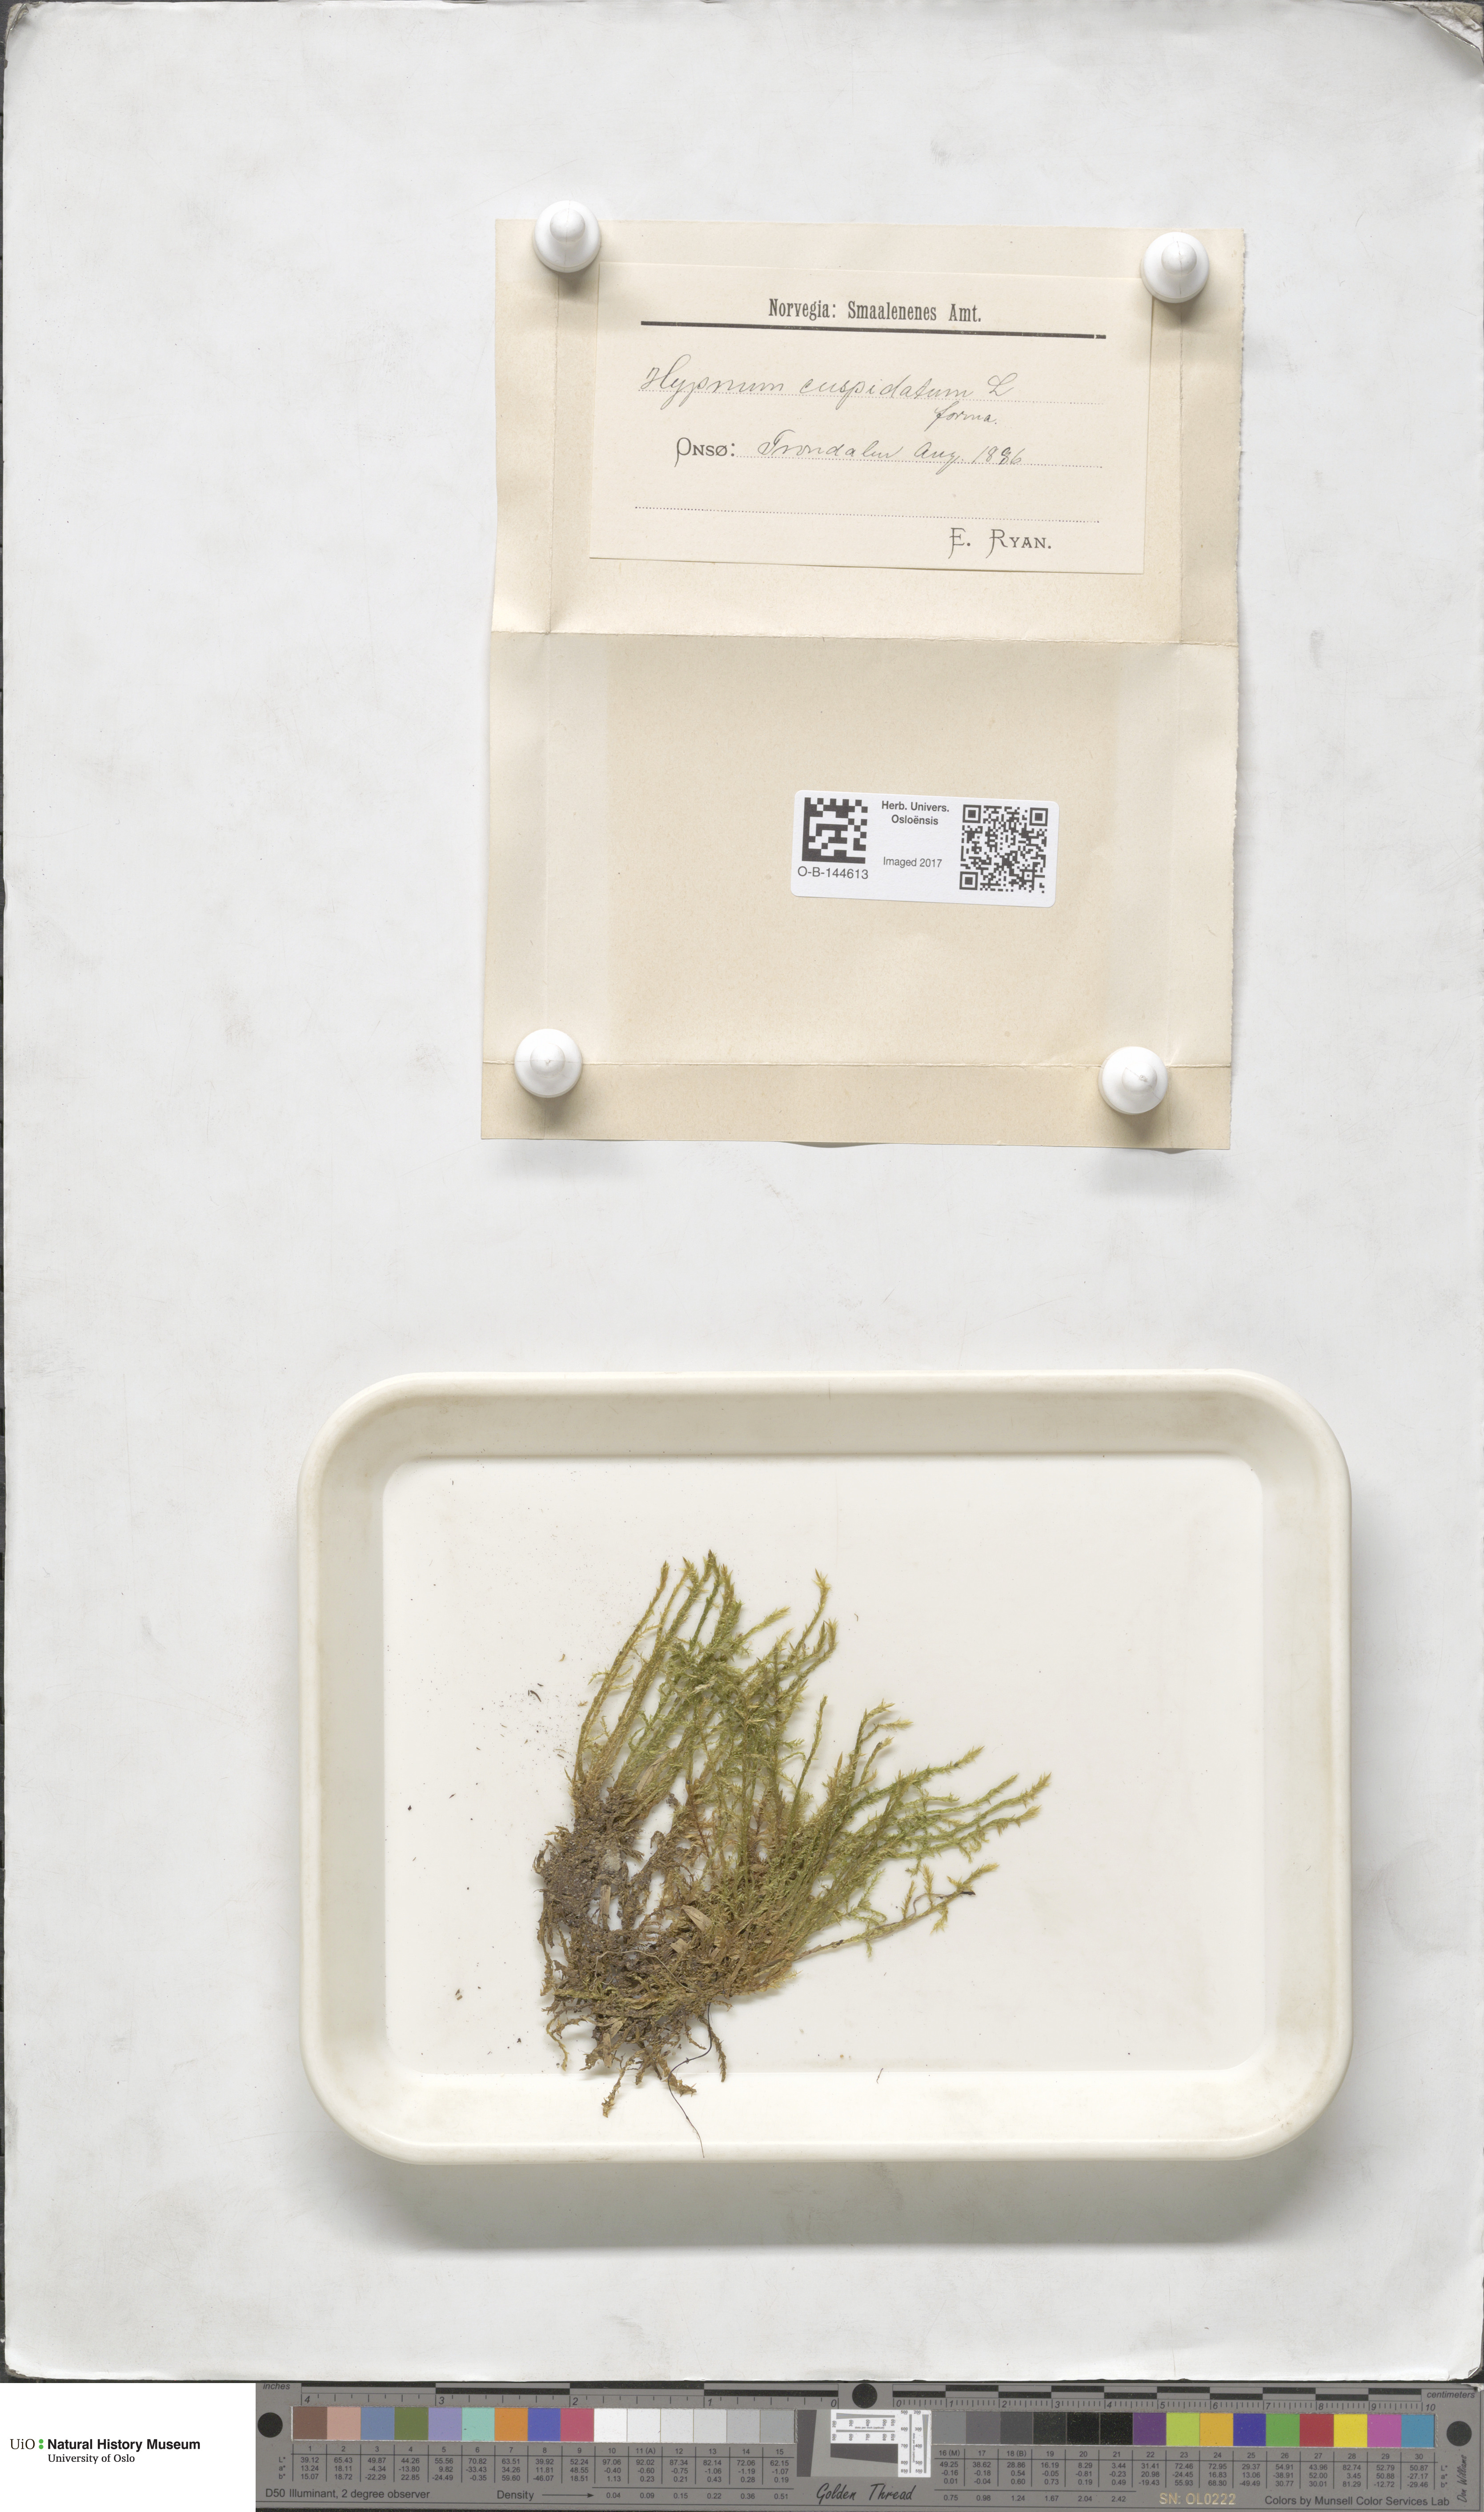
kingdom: Plantae
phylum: Bryophyta
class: Bryopsida
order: Hypnales
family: Pylaisiaceae
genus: Calliergonella
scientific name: Calliergonella cuspidata
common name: Common large wetland moss
